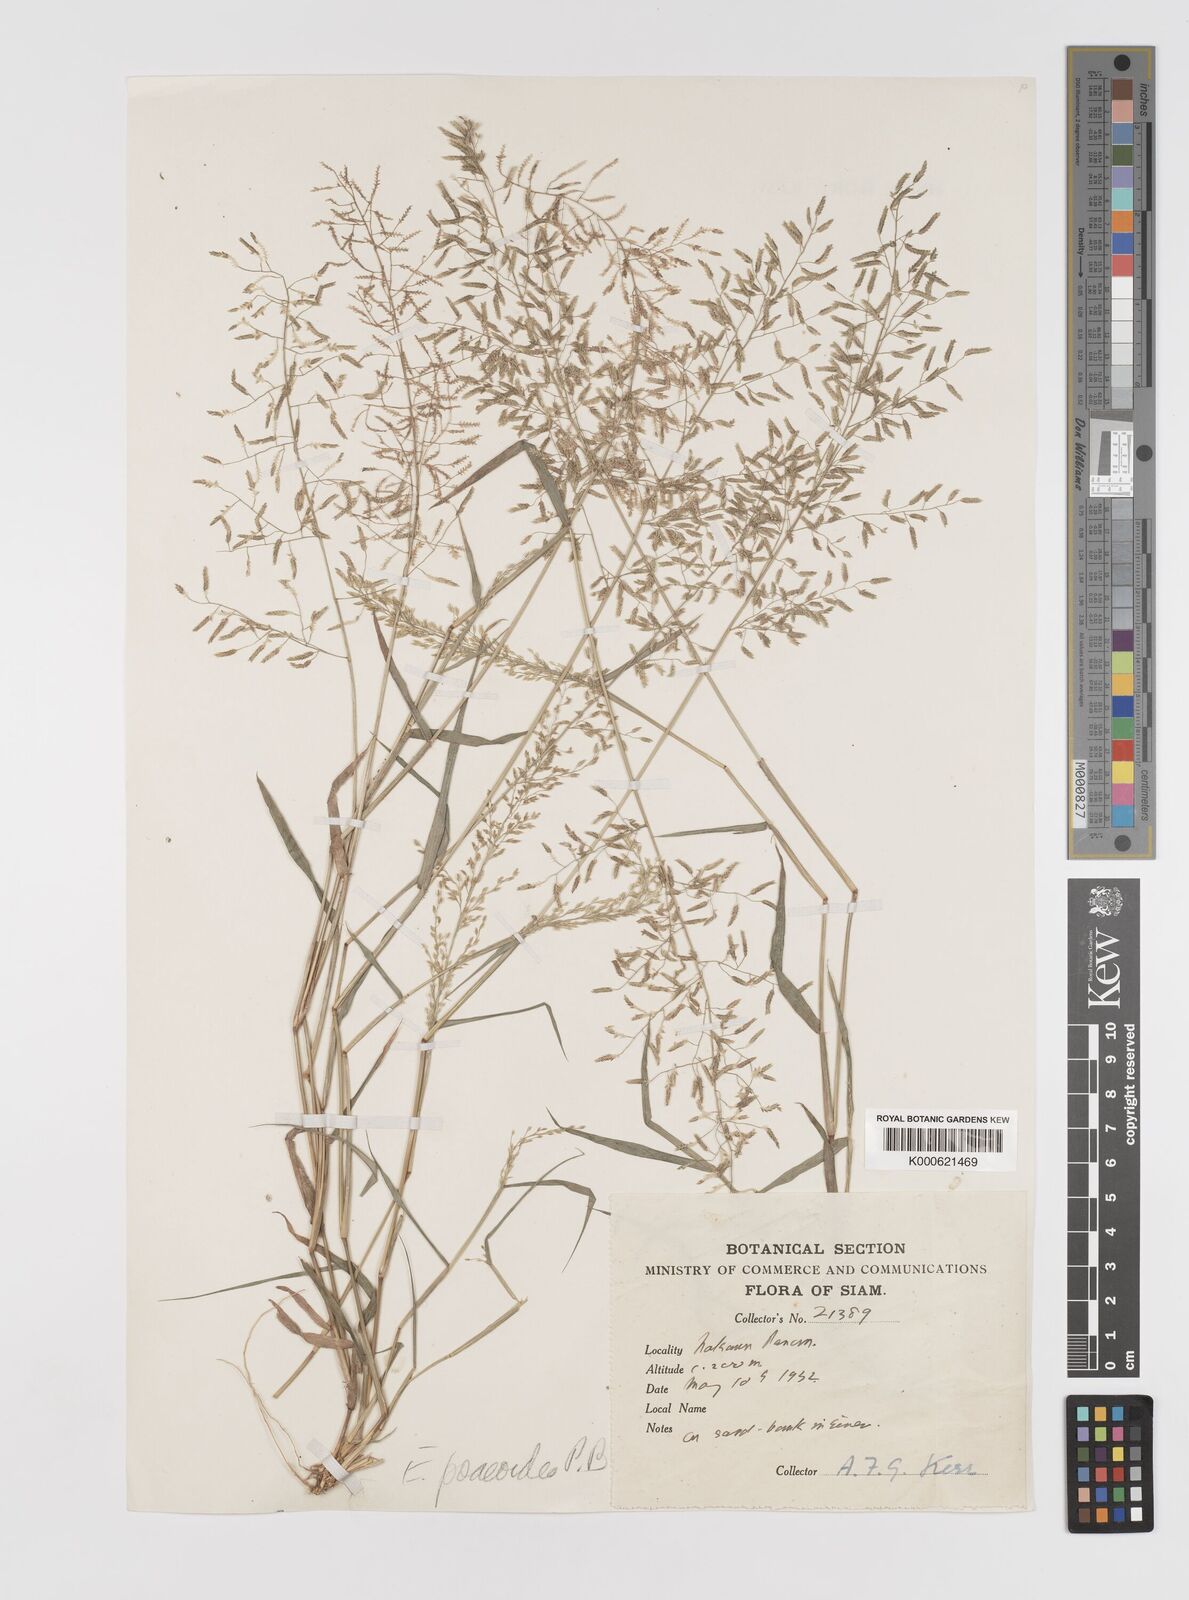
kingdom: Plantae
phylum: Tracheophyta
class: Liliopsida
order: Poales
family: Poaceae
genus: Eragrostis
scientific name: Eragrostis minor
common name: Small love-grass
